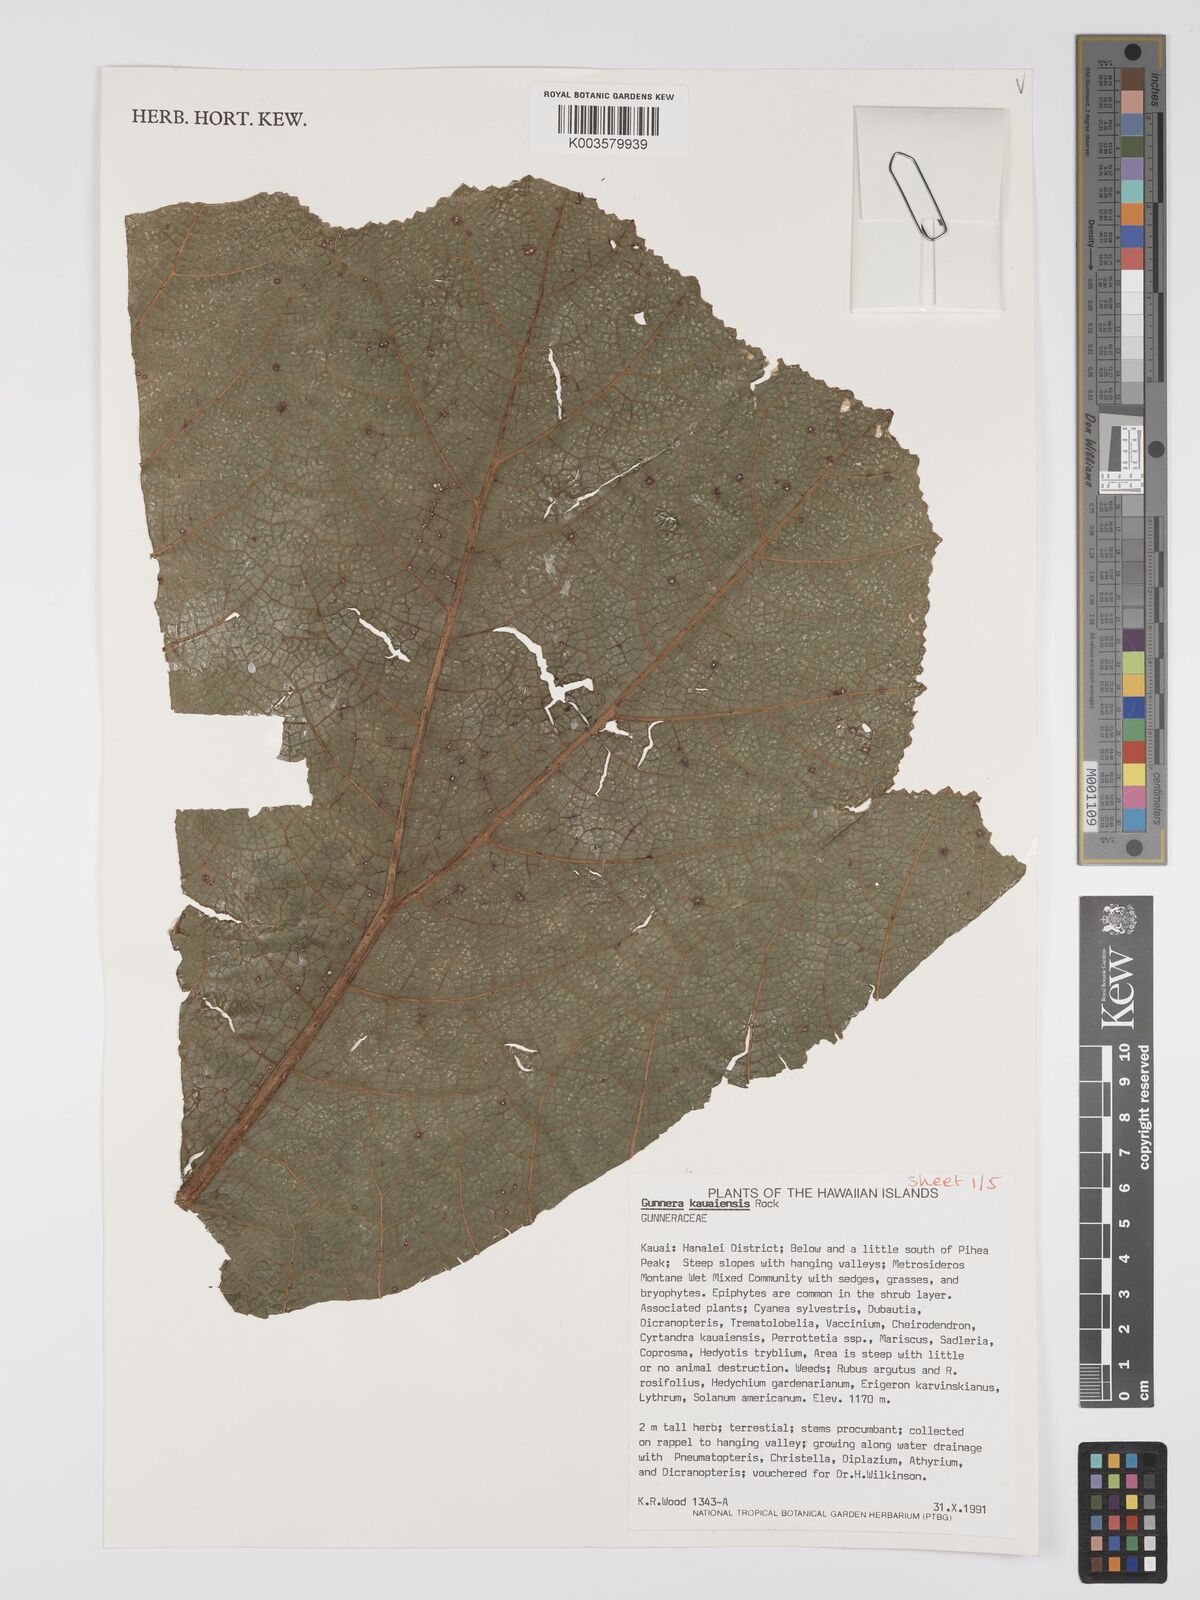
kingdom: Plantae
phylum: Tracheophyta
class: Magnoliopsida
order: Gunnerales
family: Gunneraceae
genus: Gunnera
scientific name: Gunnera kauaiensis
